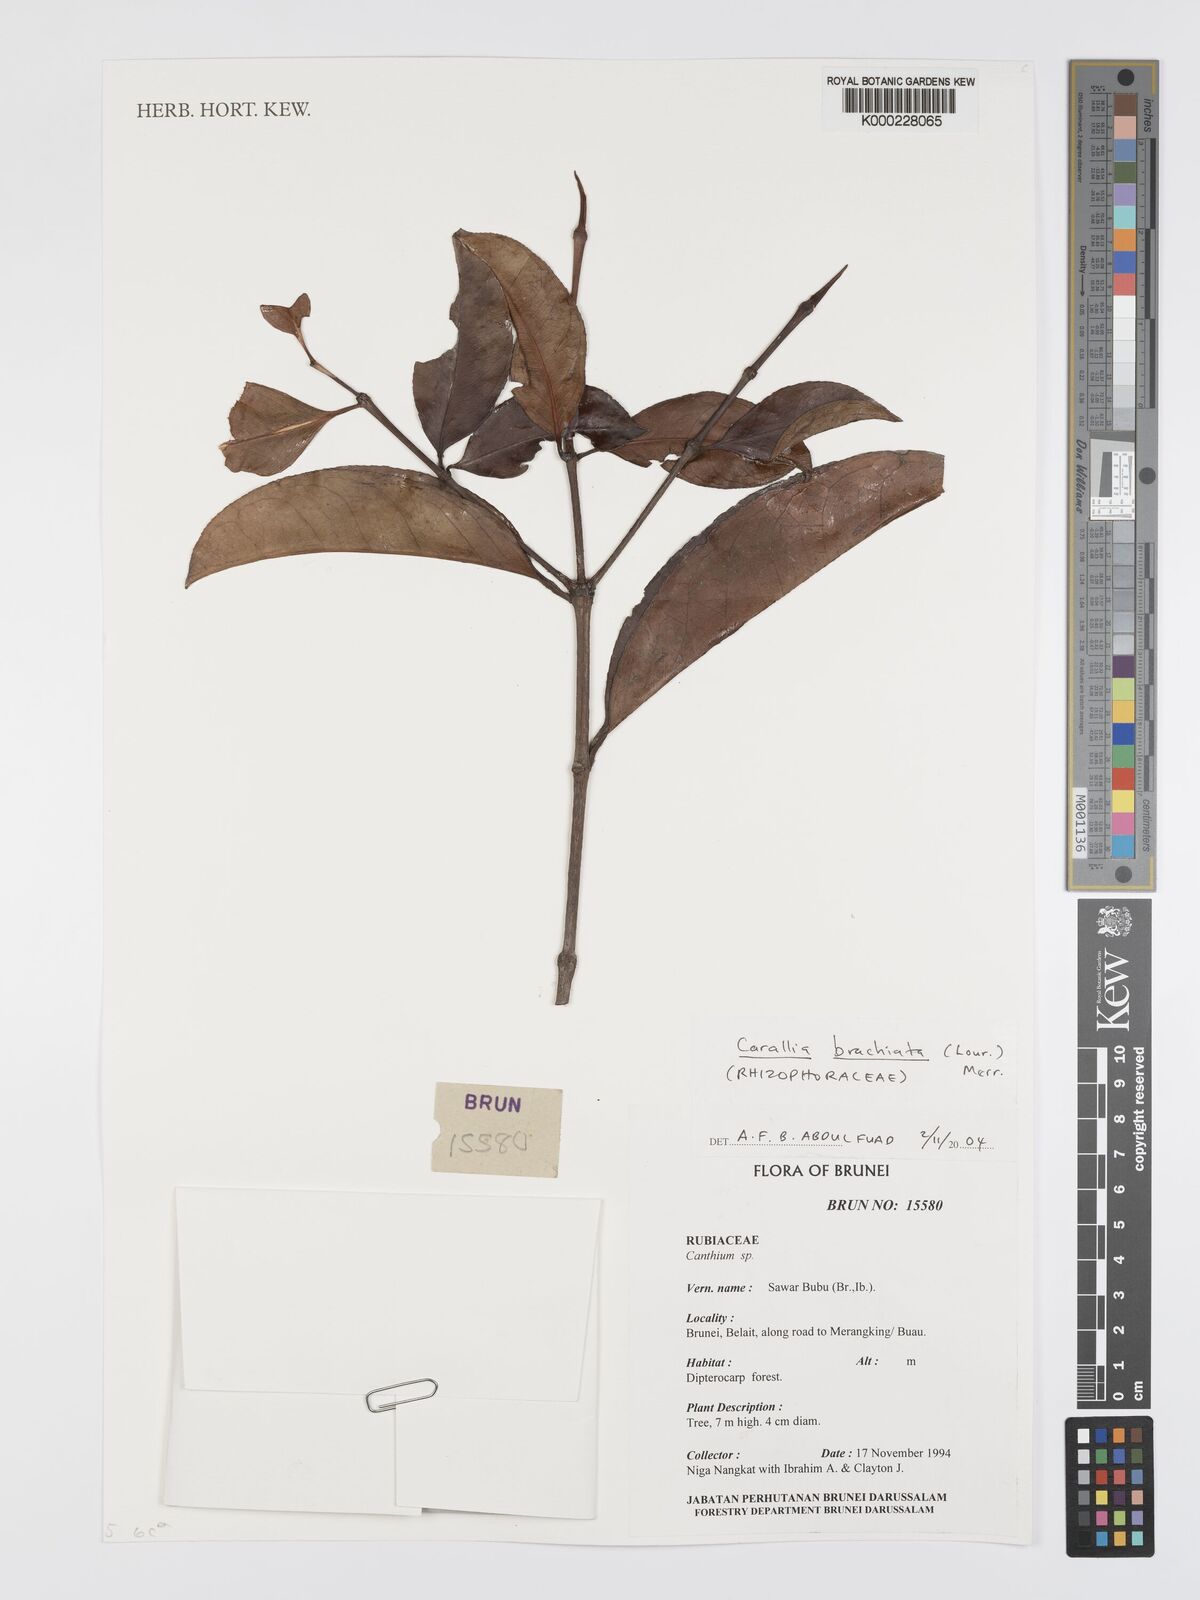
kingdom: Plantae
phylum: Tracheophyta
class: Magnoliopsida
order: Malpighiales
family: Rhizophoraceae
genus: Carallia
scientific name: Carallia brachiata
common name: Carallawood
